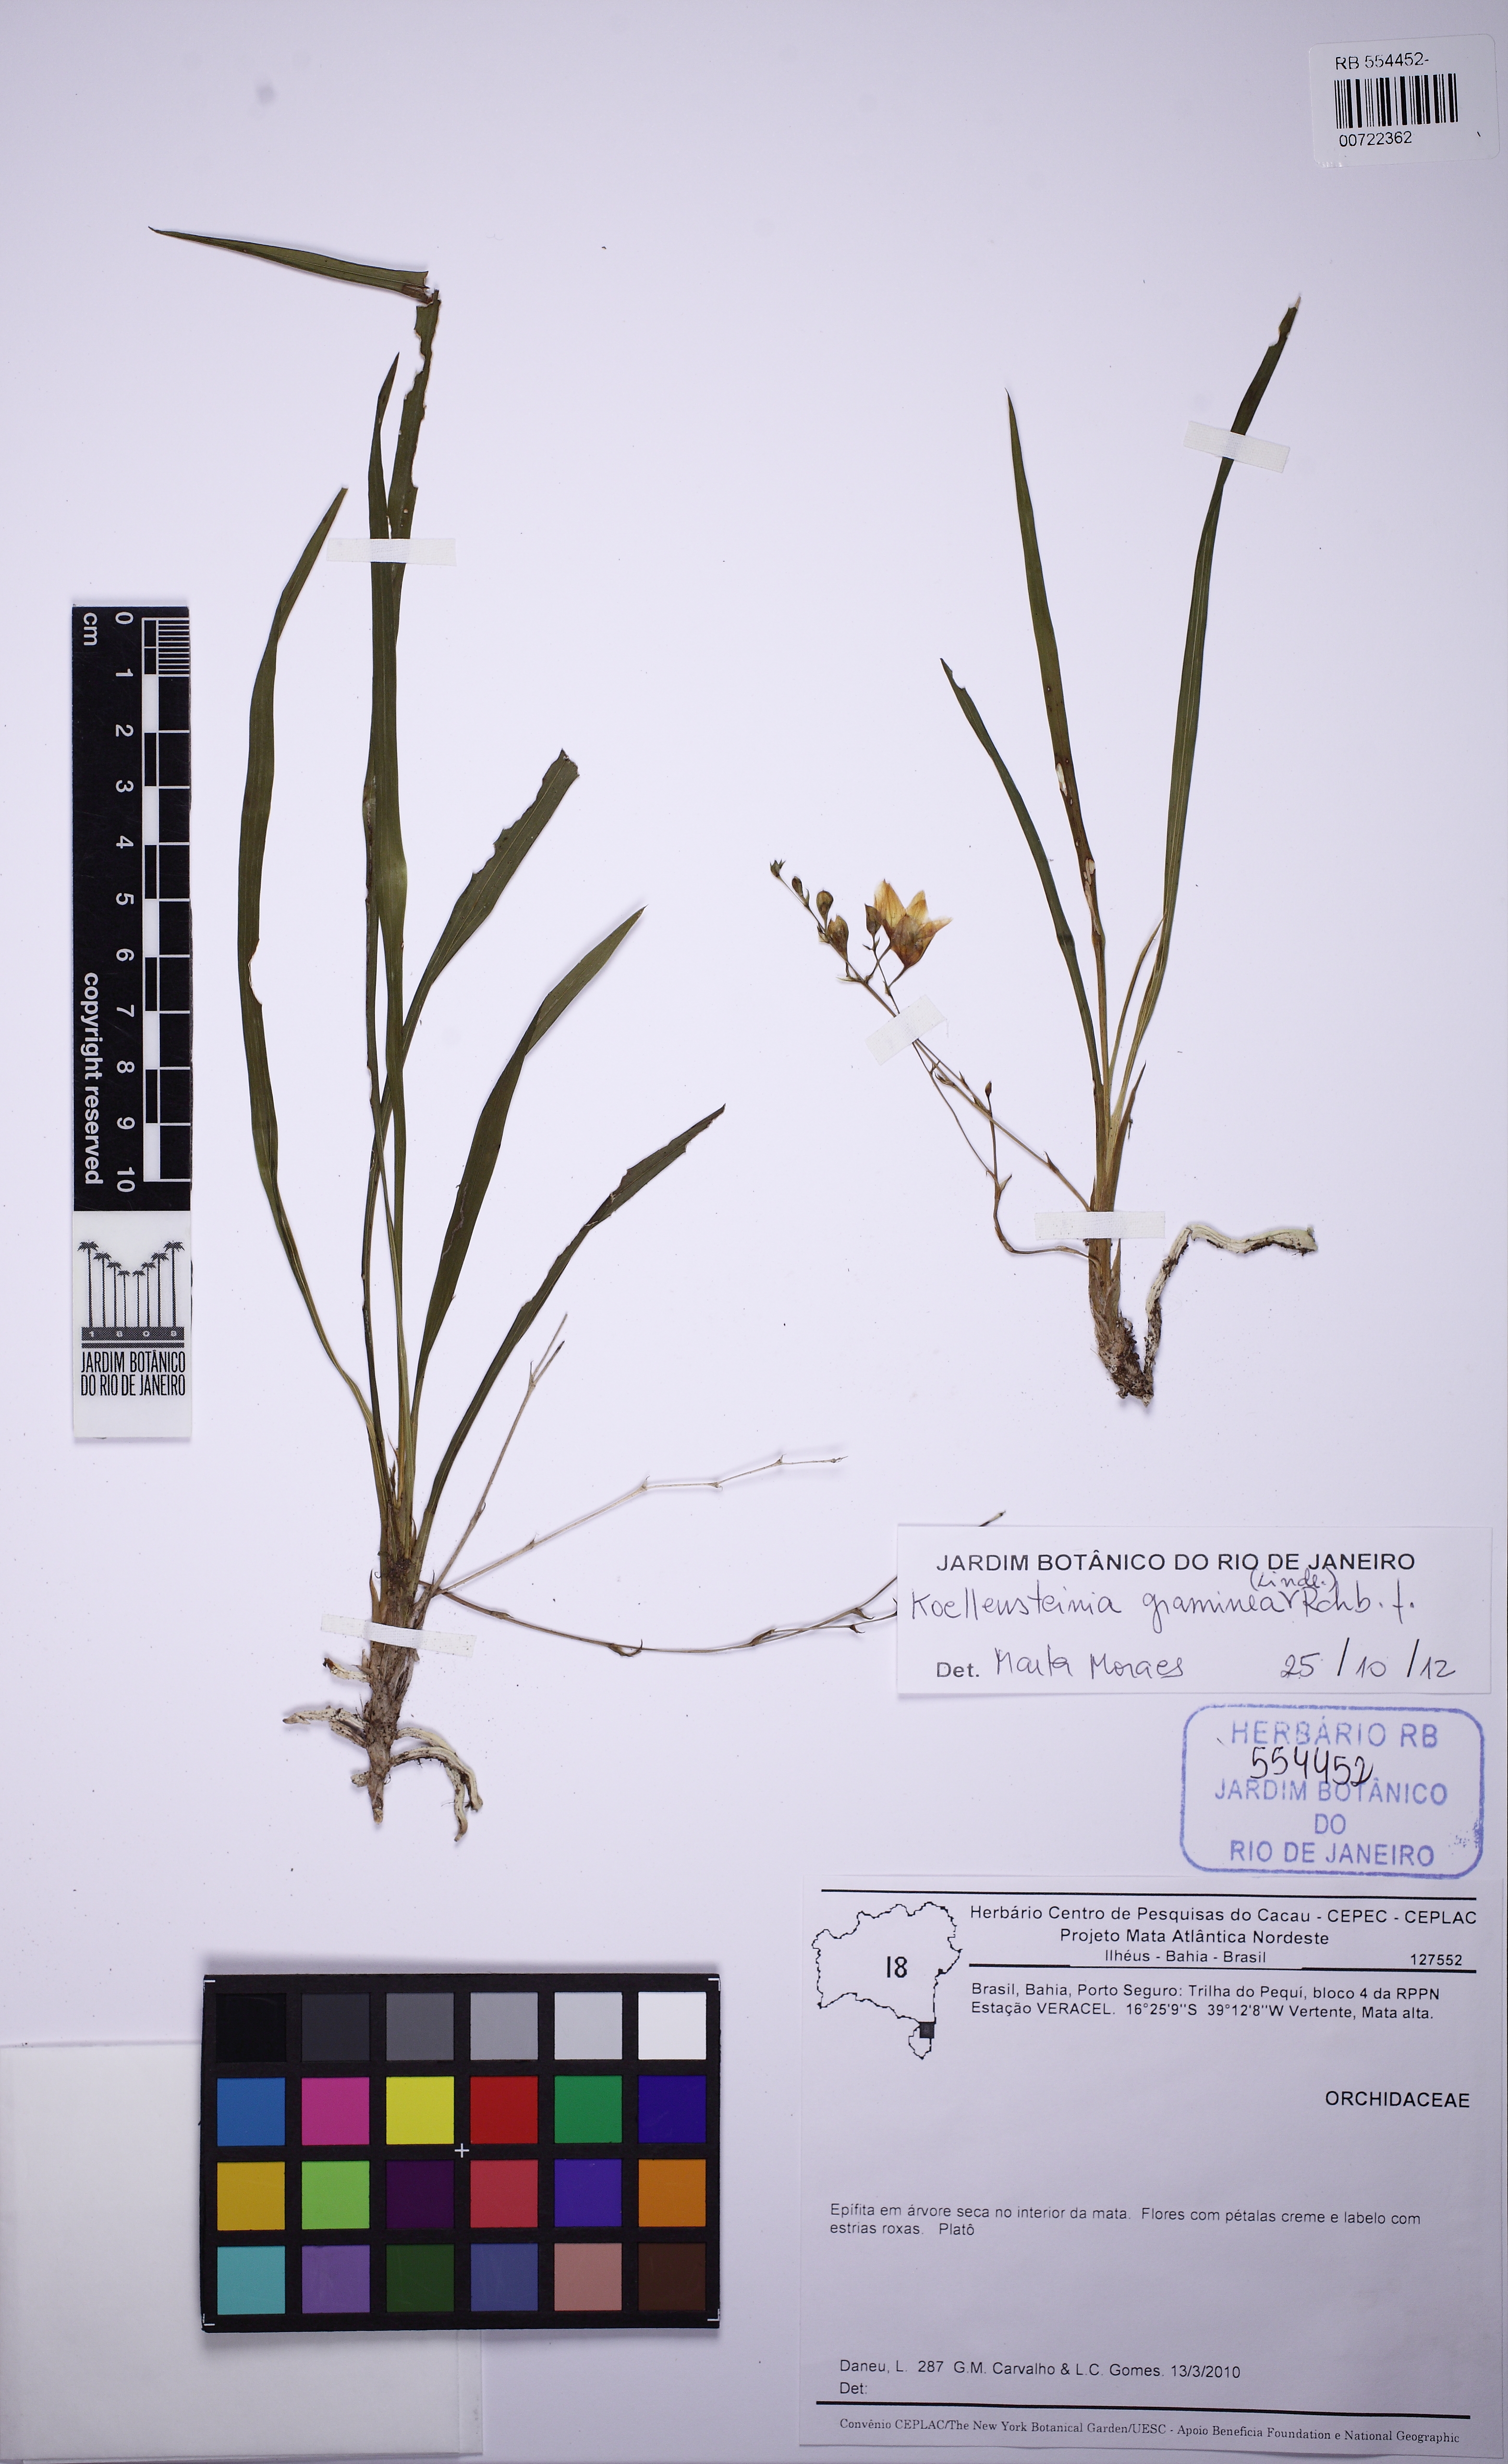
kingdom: Plantae
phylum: Tracheophyta
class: Liliopsida
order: Asparagales
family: Orchidaceae
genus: Koellensteinia
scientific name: Koellensteinia graminea
